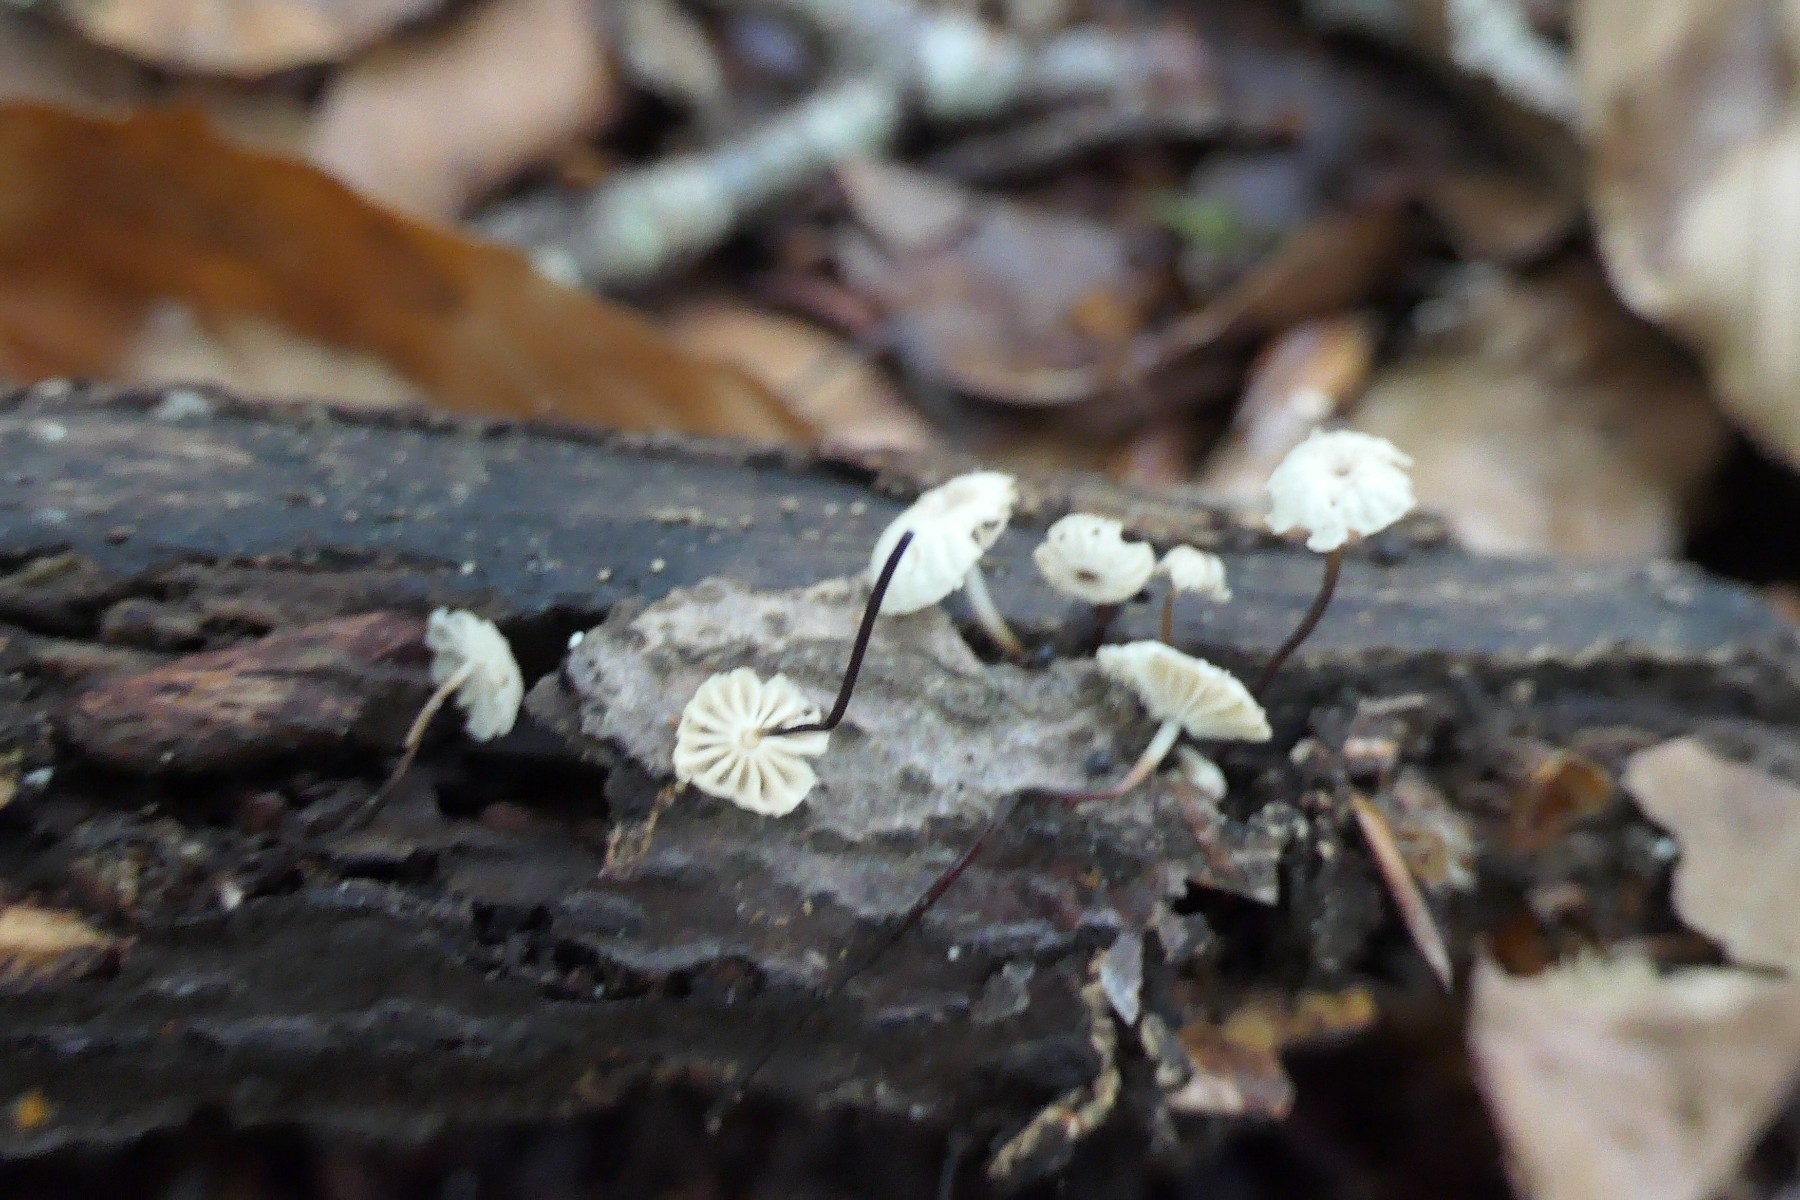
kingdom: Fungi
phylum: Basidiomycota
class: Agaricomycetes
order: Agaricales
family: Marasmiaceae
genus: Marasmius
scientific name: Marasmius rotula
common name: hjul-bruskhat
